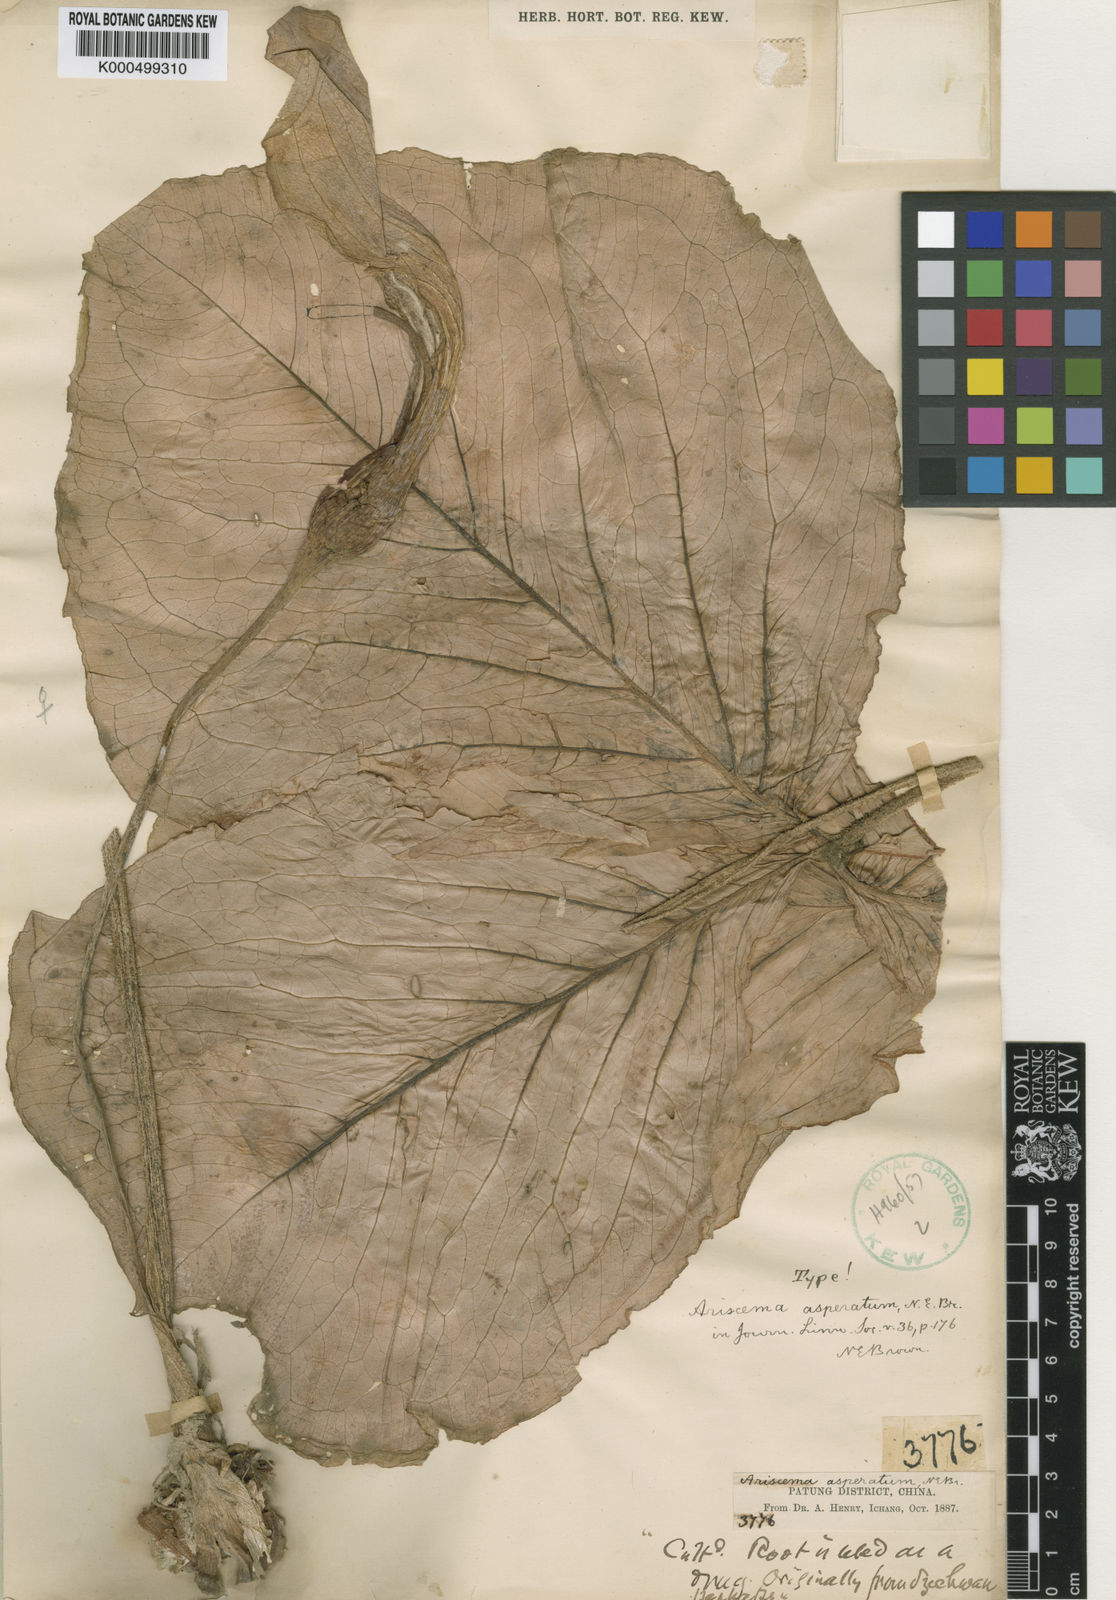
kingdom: Plantae
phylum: Tracheophyta
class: Liliopsida
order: Alismatales
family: Araceae
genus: Arisaema
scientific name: Arisaema asperatum
